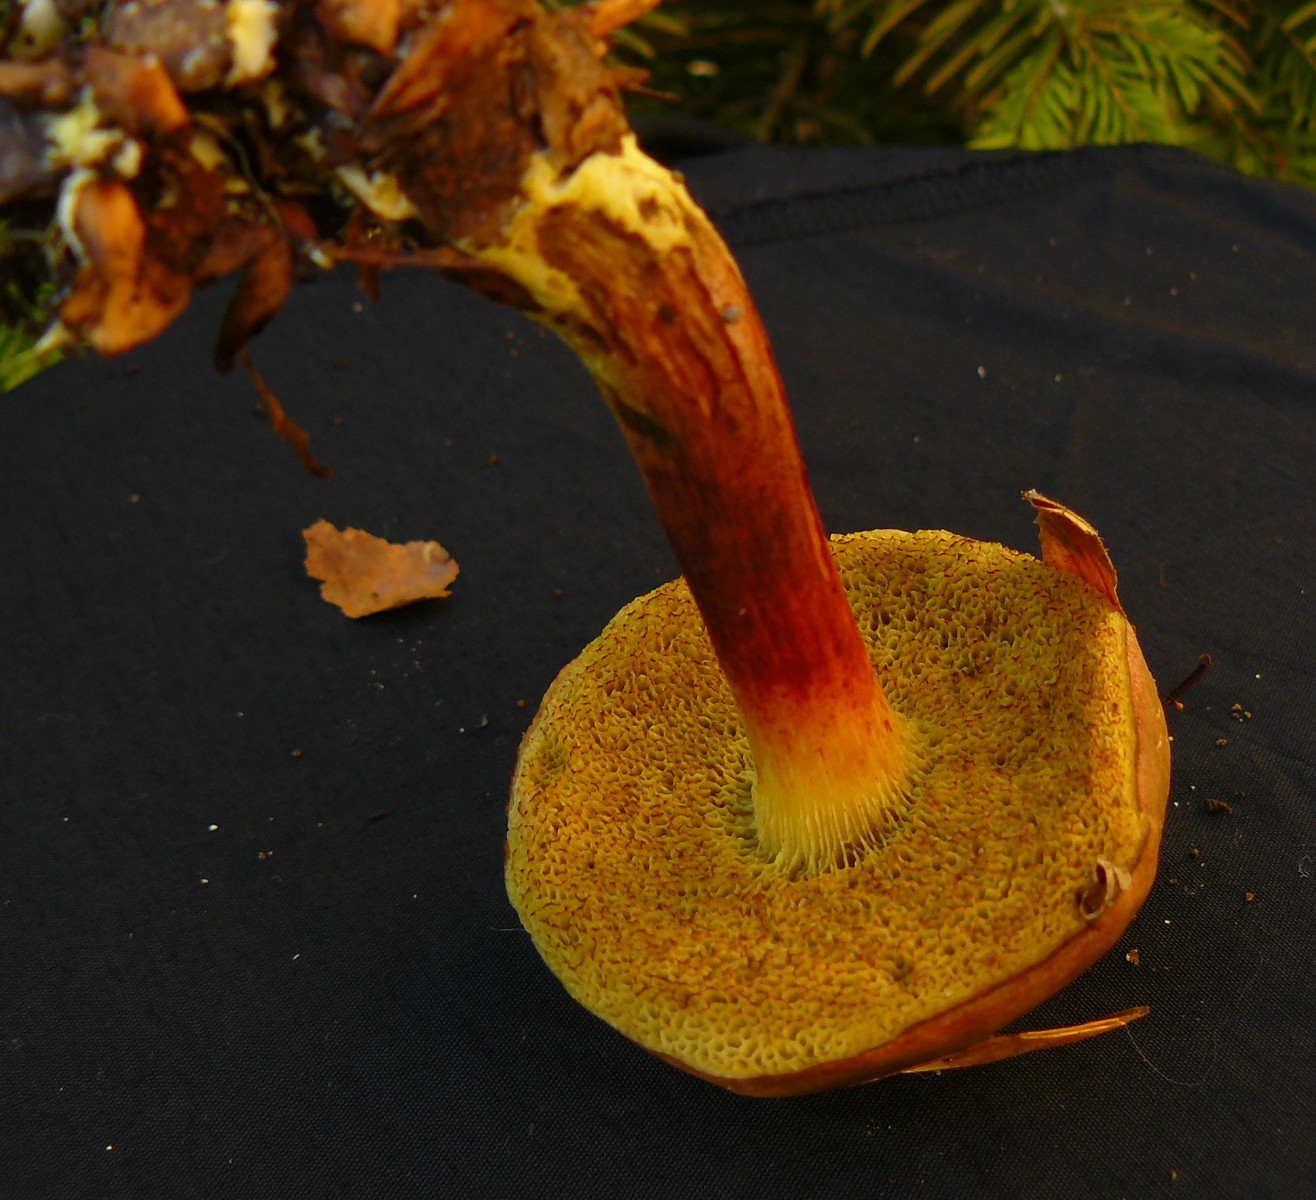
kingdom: Fungi
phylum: Basidiomycota
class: Agaricomycetes
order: Boletales
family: Boletaceae
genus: Xerocomellus
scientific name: Xerocomellus pruinatus
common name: dugget rørhat
